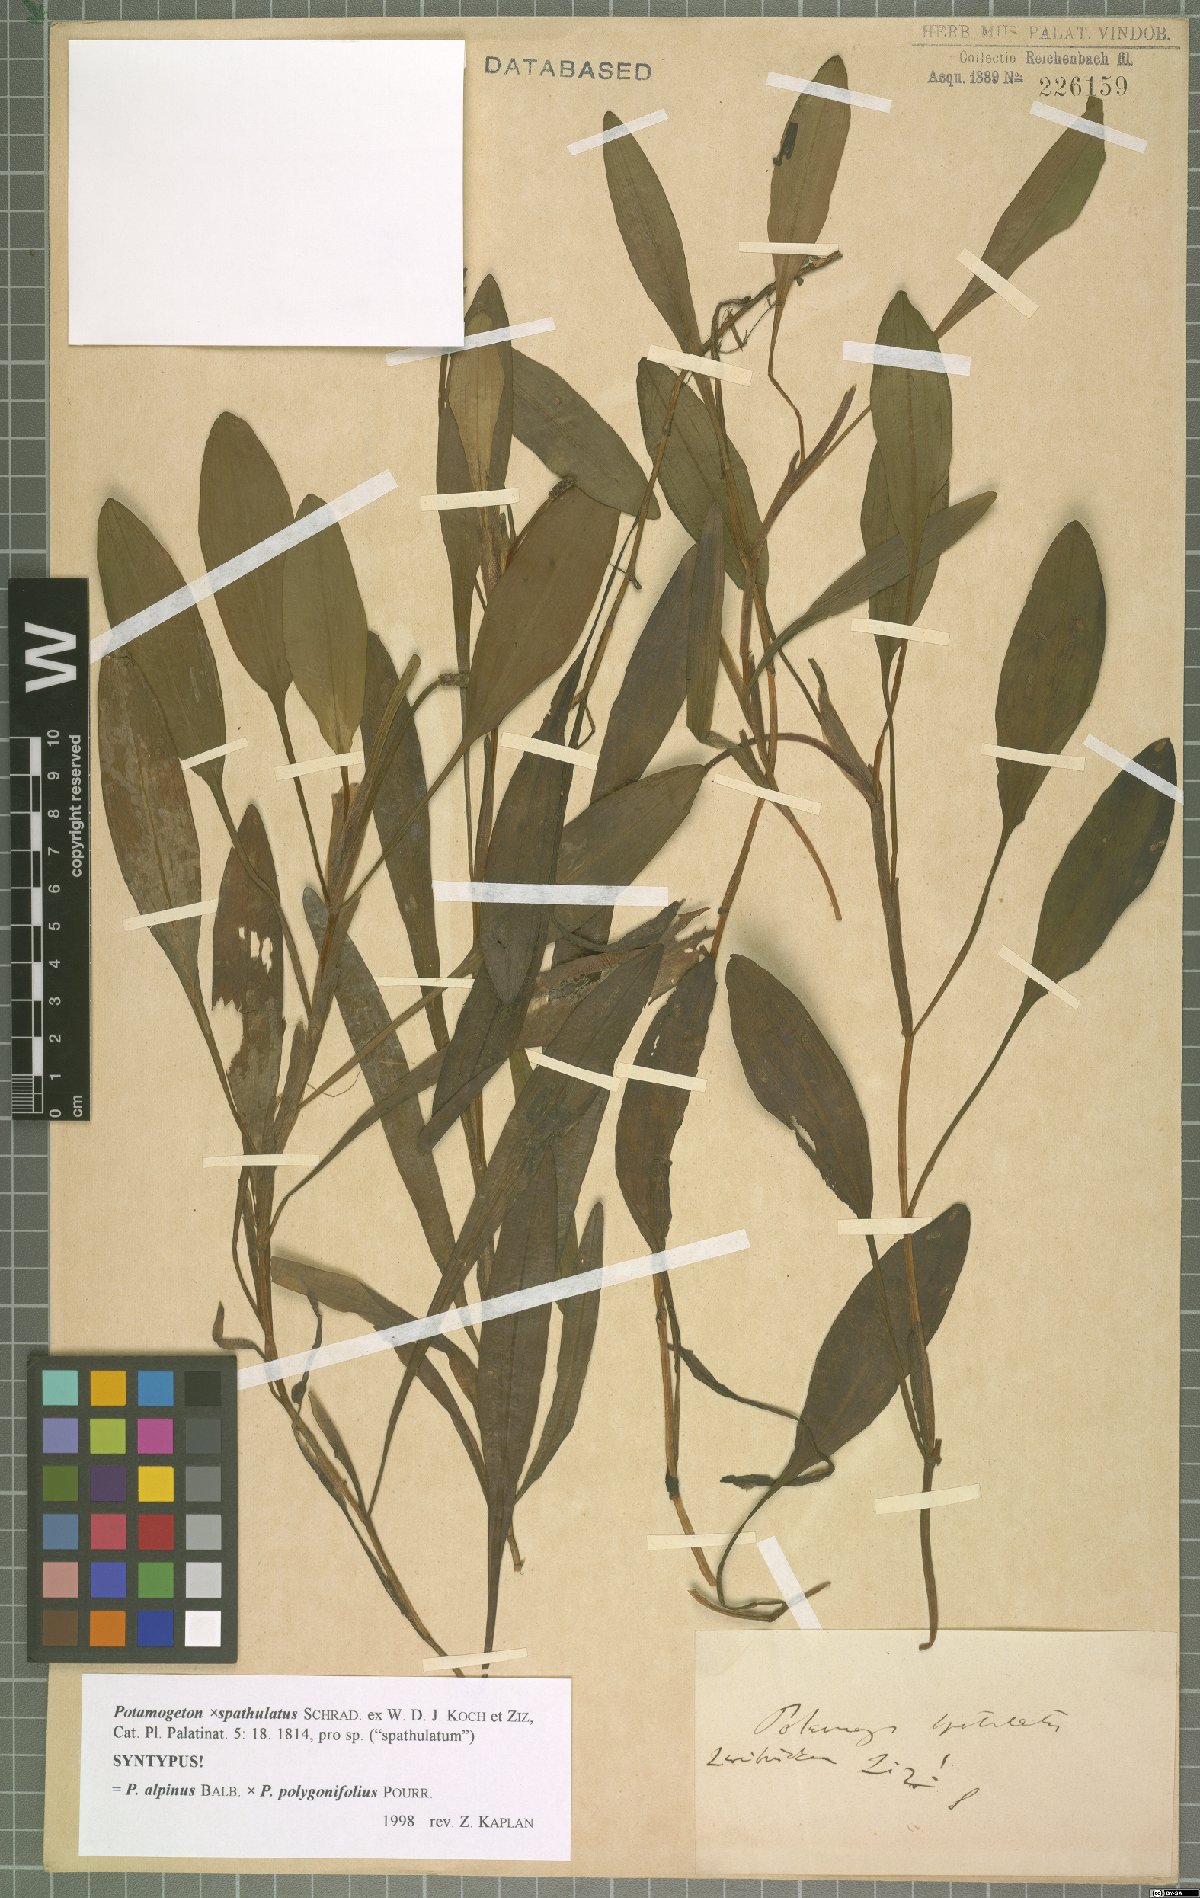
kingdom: Plantae
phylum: Tracheophyta
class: Liliopsida
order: Alismatales
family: Potamogetonaceae
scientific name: Potamogetonaceae
